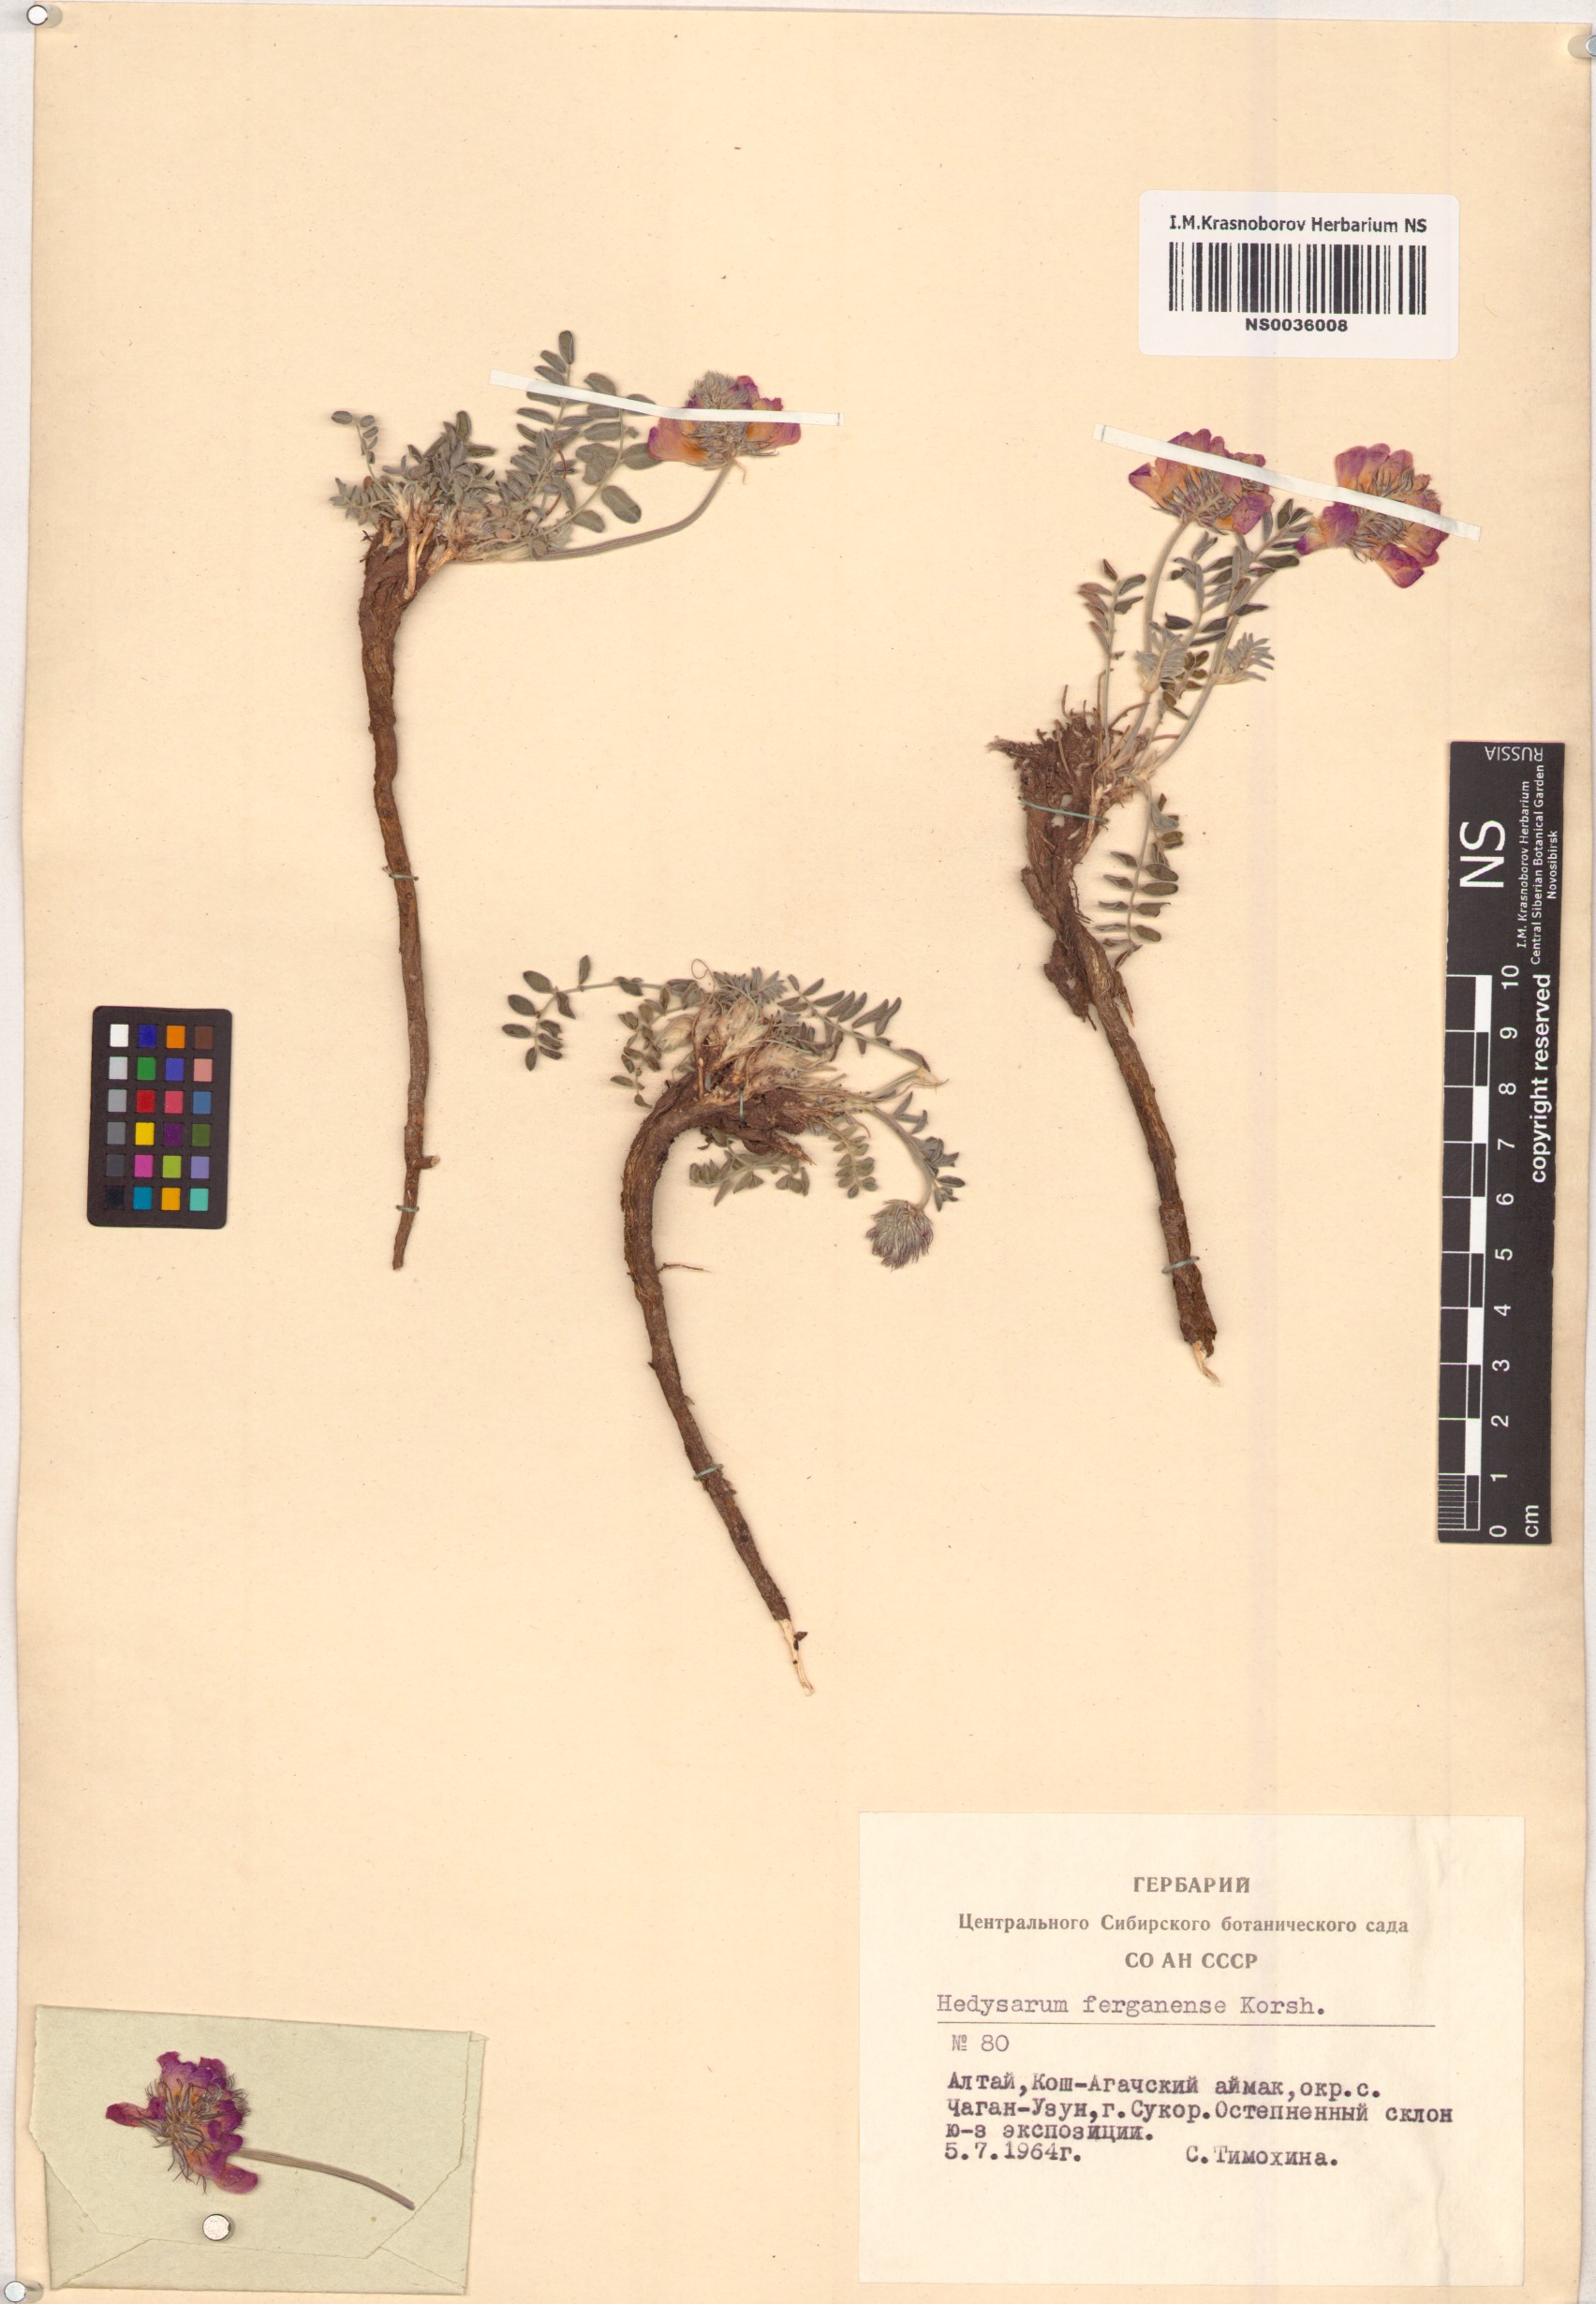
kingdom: Plantae
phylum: Tracheophyta
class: Magnoliopsida
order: Fabales
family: Fabaceae
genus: Hedysarum
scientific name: Hedysarum ferganense
